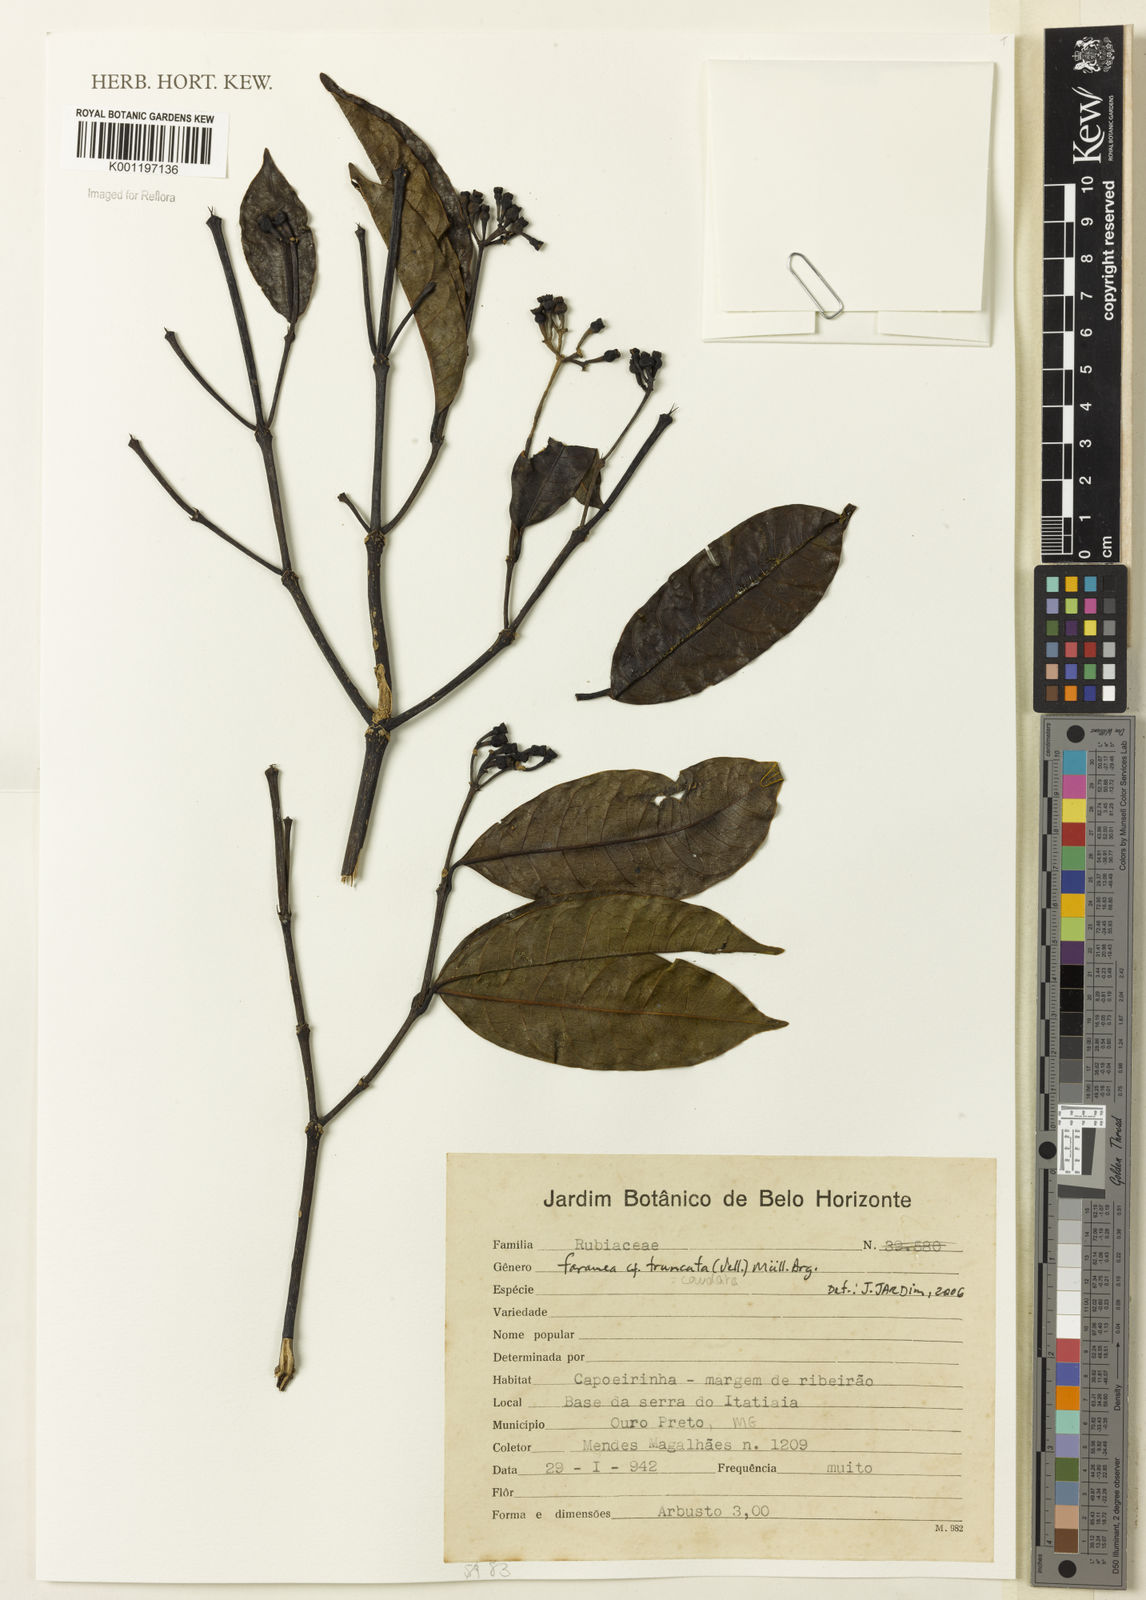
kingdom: Plantae
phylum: Tracheophyta
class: Magnoliopsida
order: Gentianales
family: Rubiaceae
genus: Faramea
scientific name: Faramea caudata
